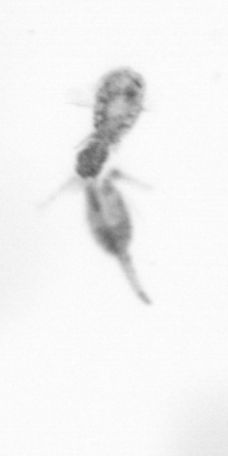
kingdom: Animalia
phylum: Arthropoda
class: Copepoda
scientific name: Copepoda
